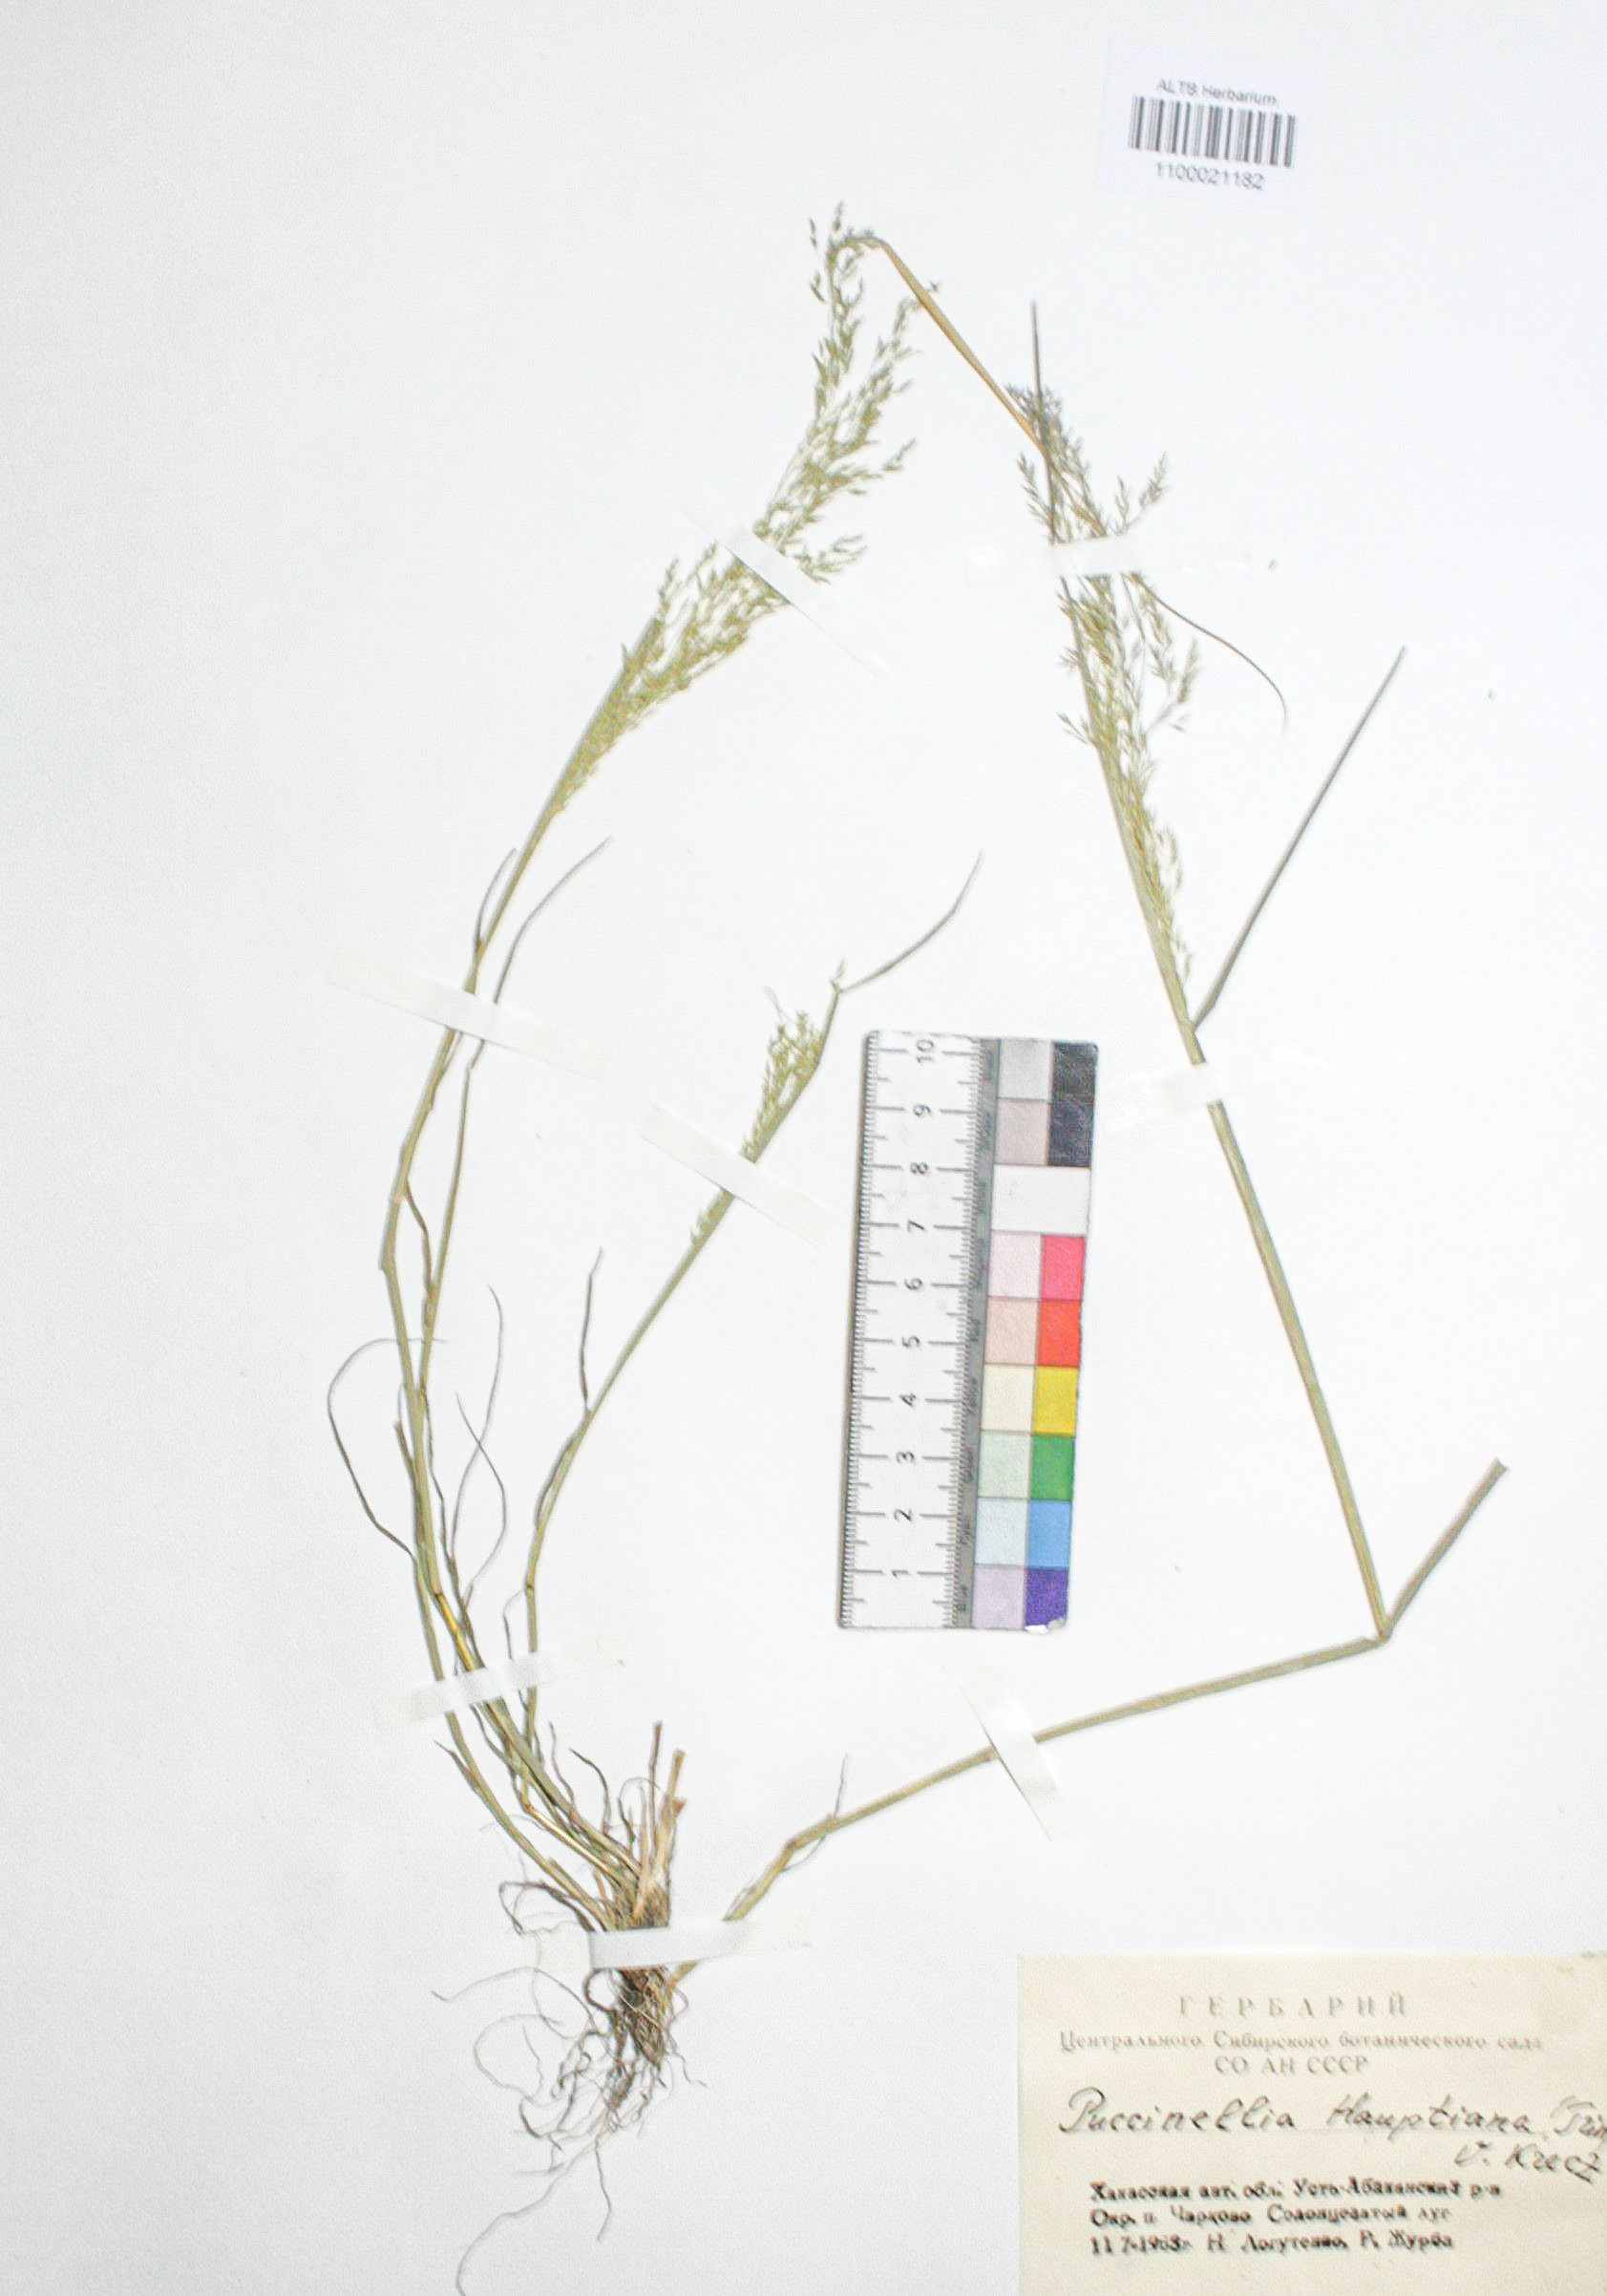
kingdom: Plantae
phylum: Tracheophyta
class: Liliopsida
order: Poales
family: Poaceae
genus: Puccinellia
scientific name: Puccinellia hauptiana
